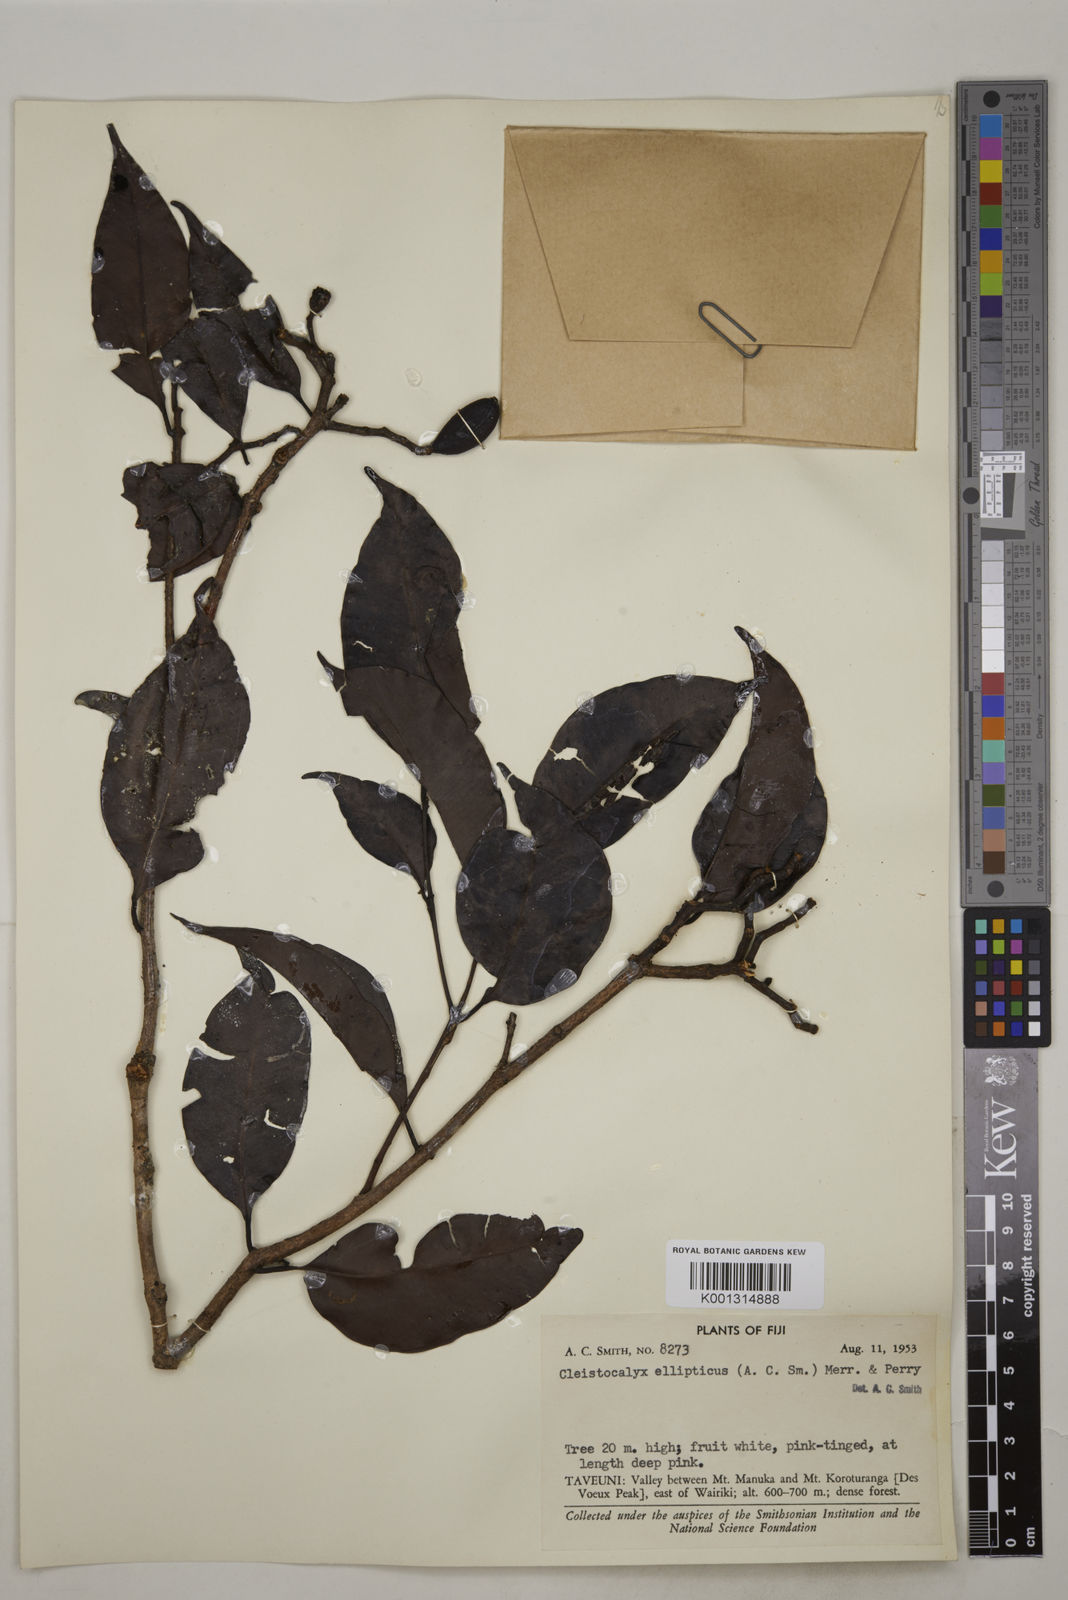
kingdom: Plantae
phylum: Tracheophyta
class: Magnoliopsida
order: Myrtales
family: Myrtaceae
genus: Syzygium
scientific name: Syzygium seemannii
